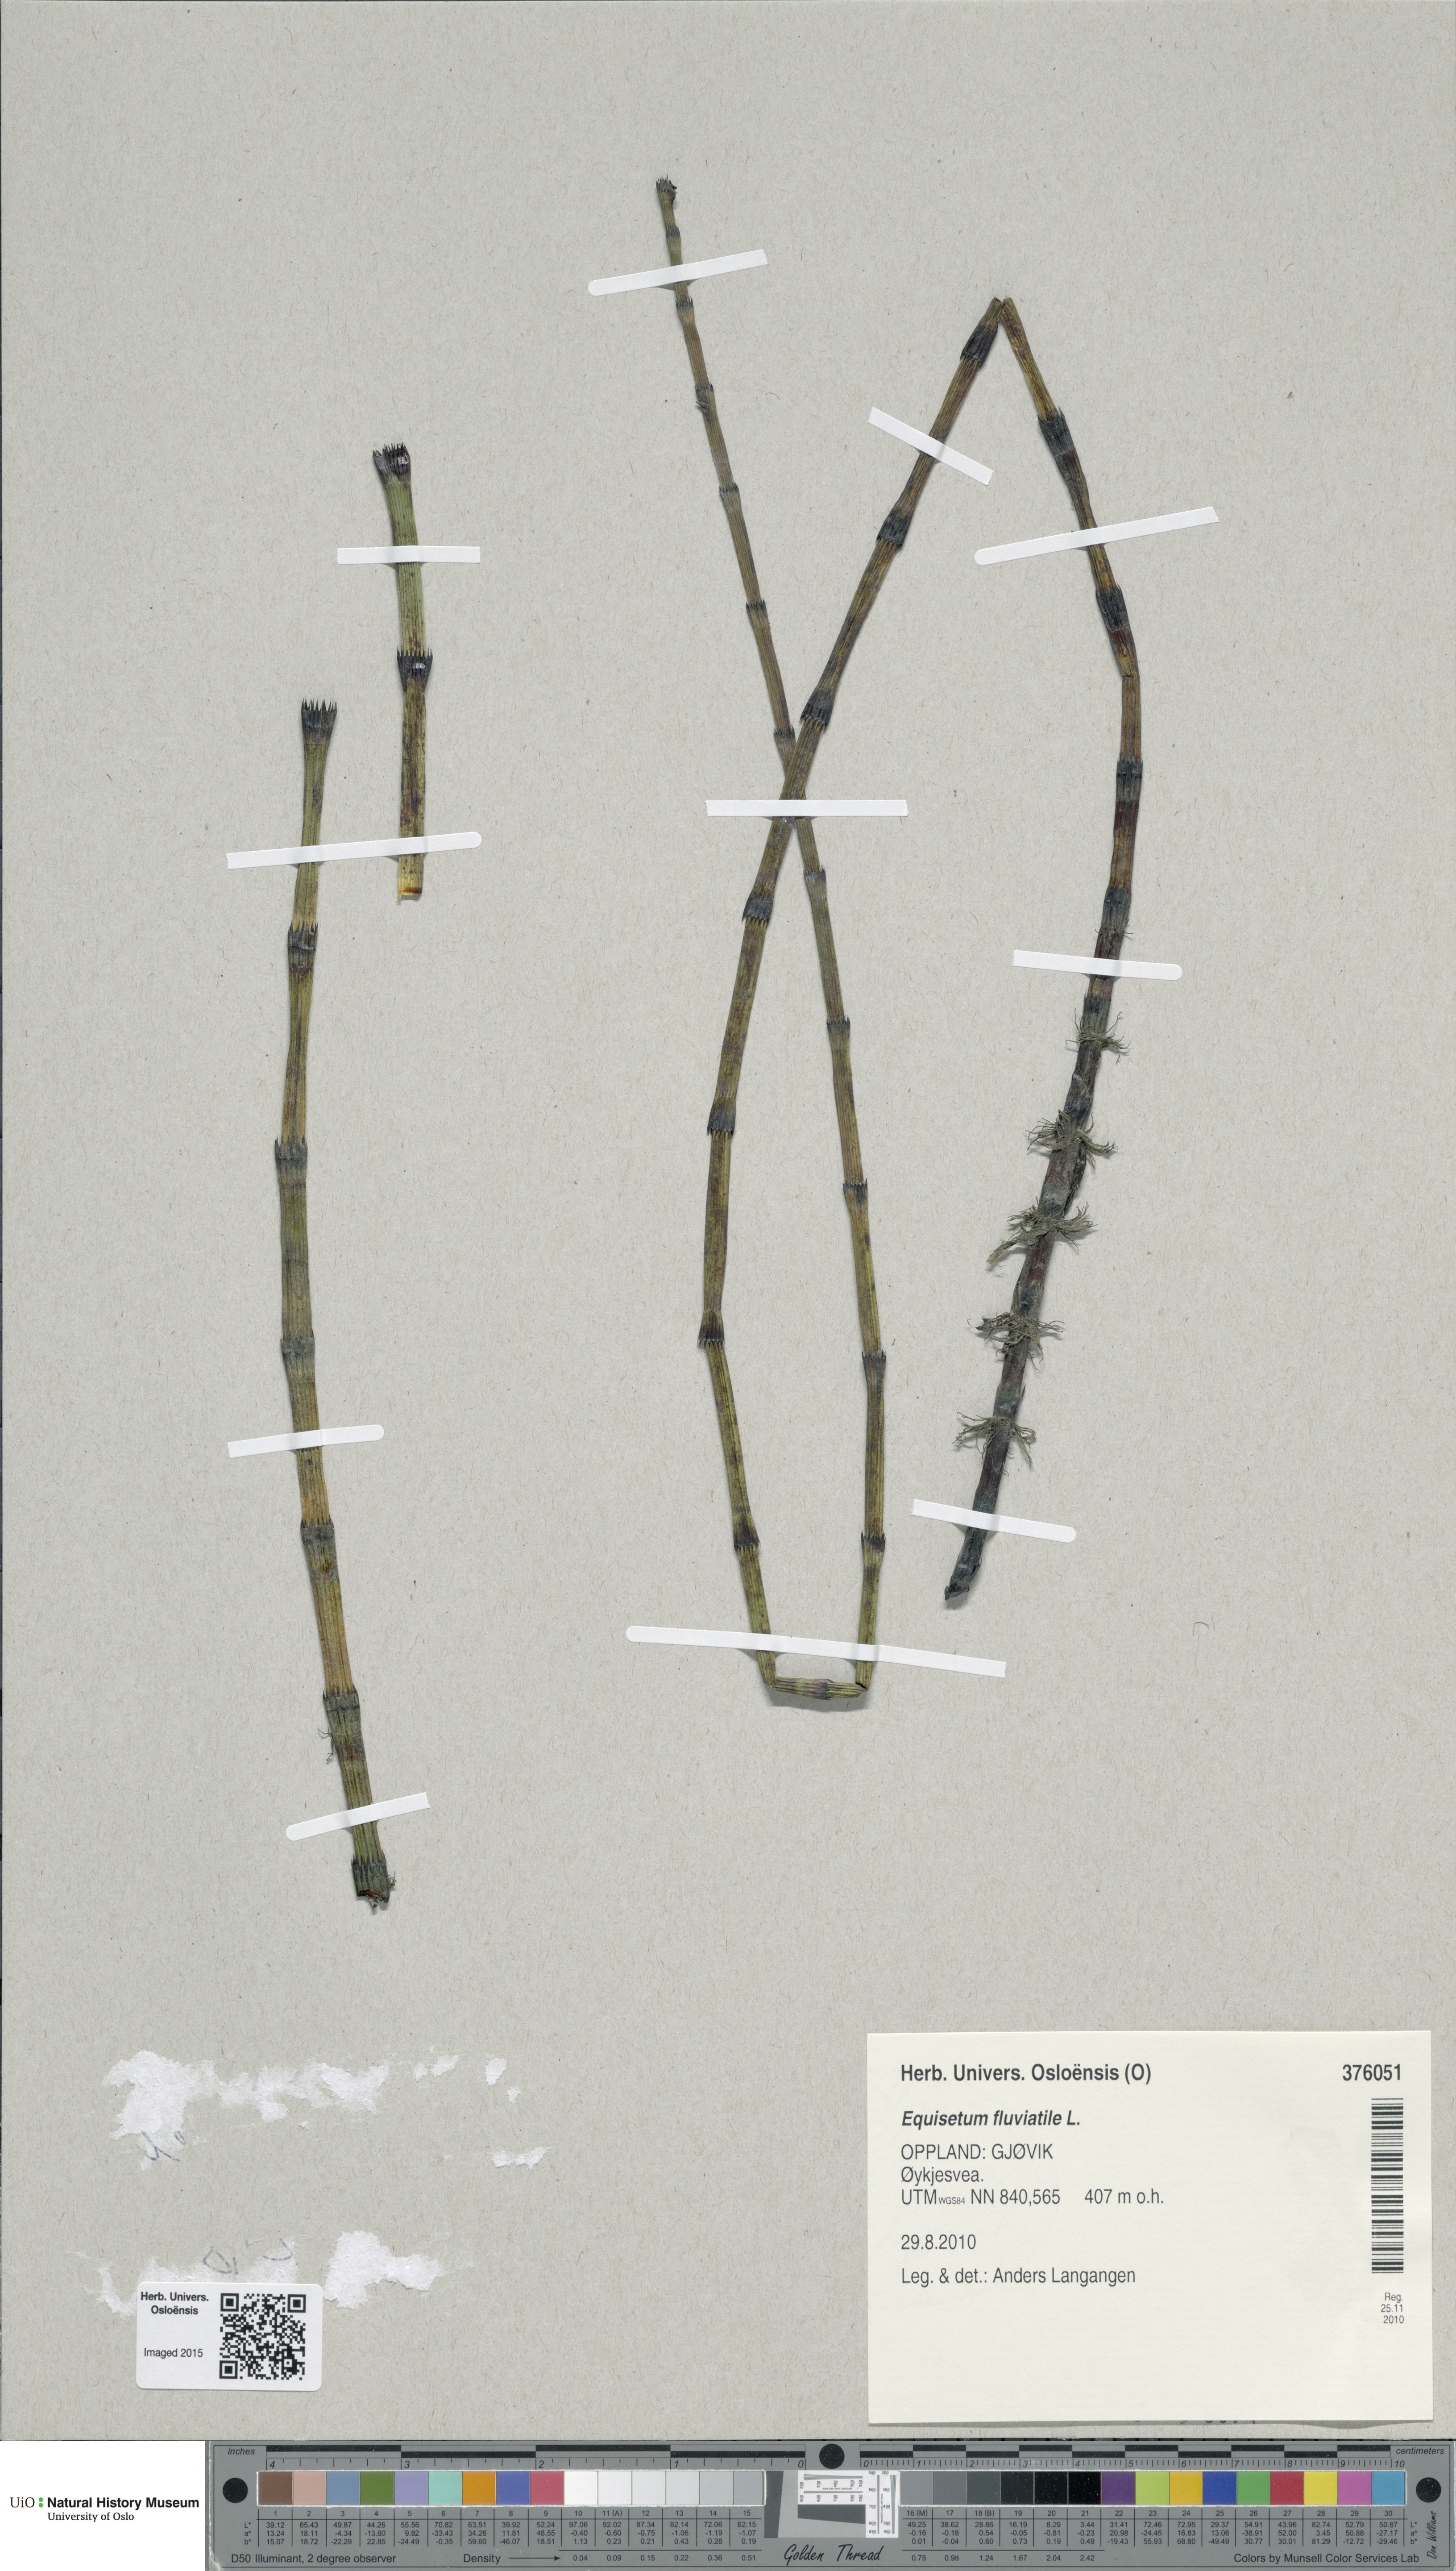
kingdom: Plantae
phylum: Tracheophyta
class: Polypodiopsida
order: Equisetales
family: Equisetaceae
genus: Equisetum
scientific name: Equisetum fluviatile
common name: Water horsetail
